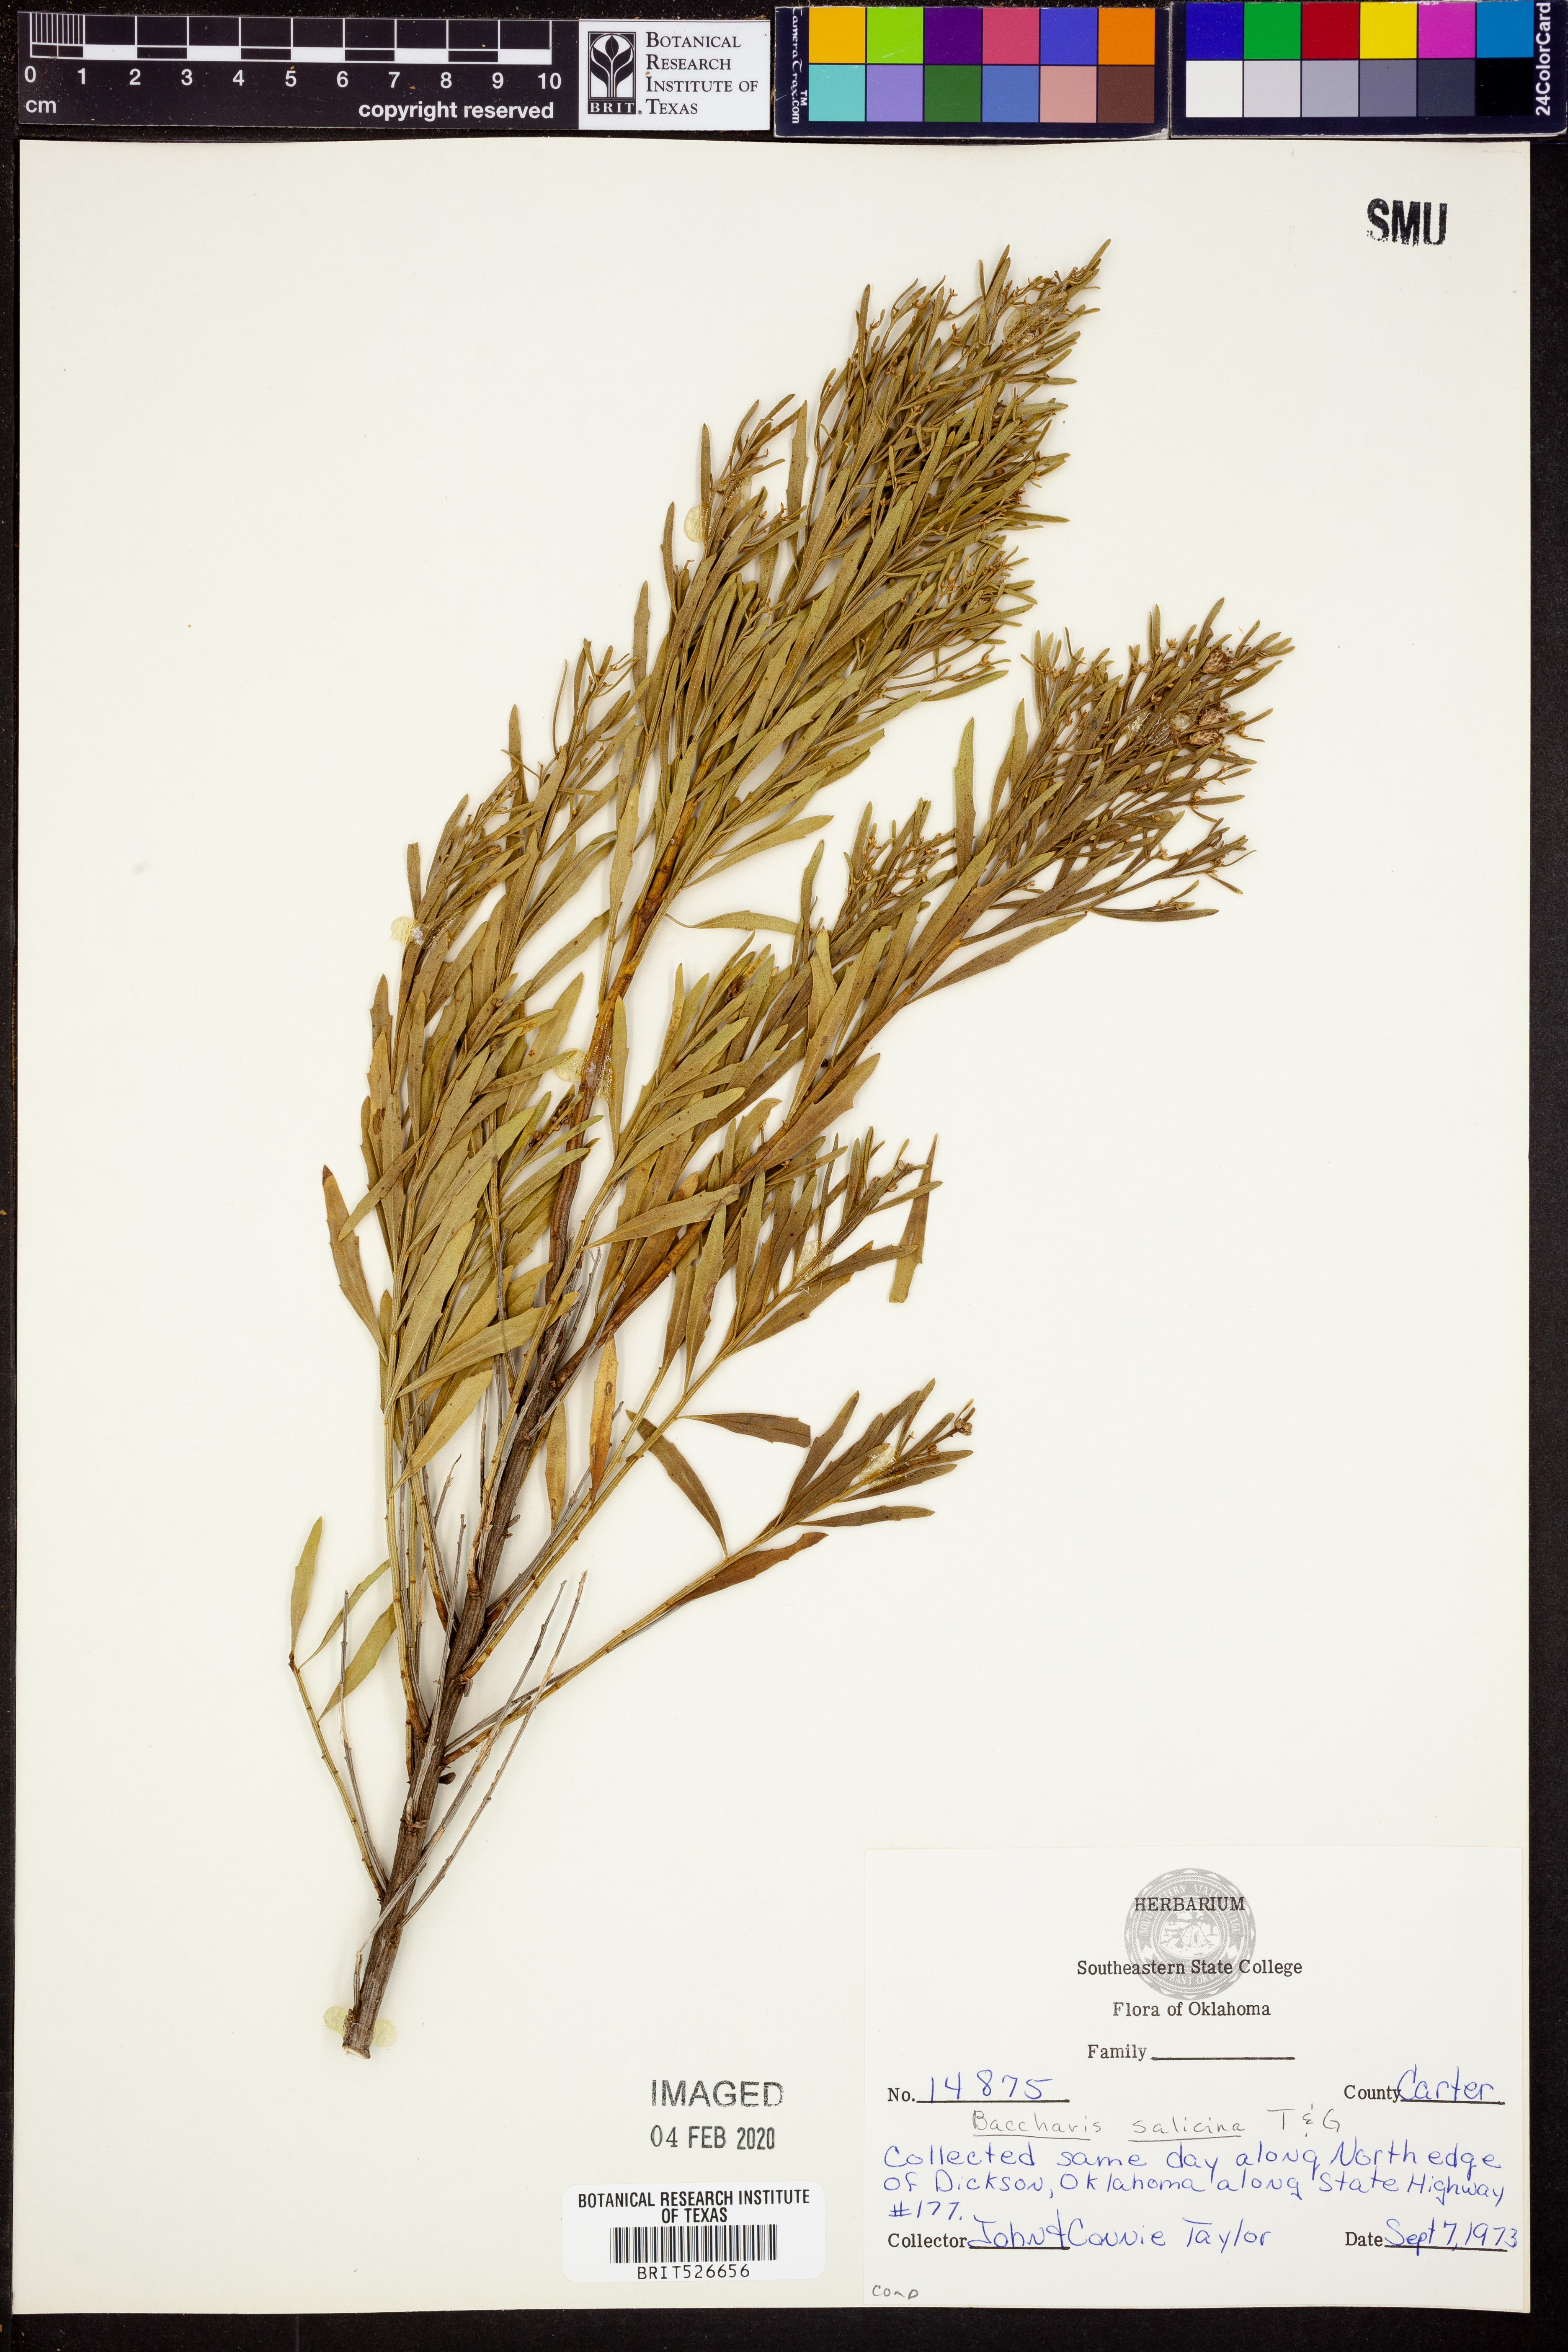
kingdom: Plantae
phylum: Tracheophyta
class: Magnoliopsida
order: Asterales
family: Asteraceae
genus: Baccharis
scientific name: Baccharis salicina
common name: Willow baccharis
